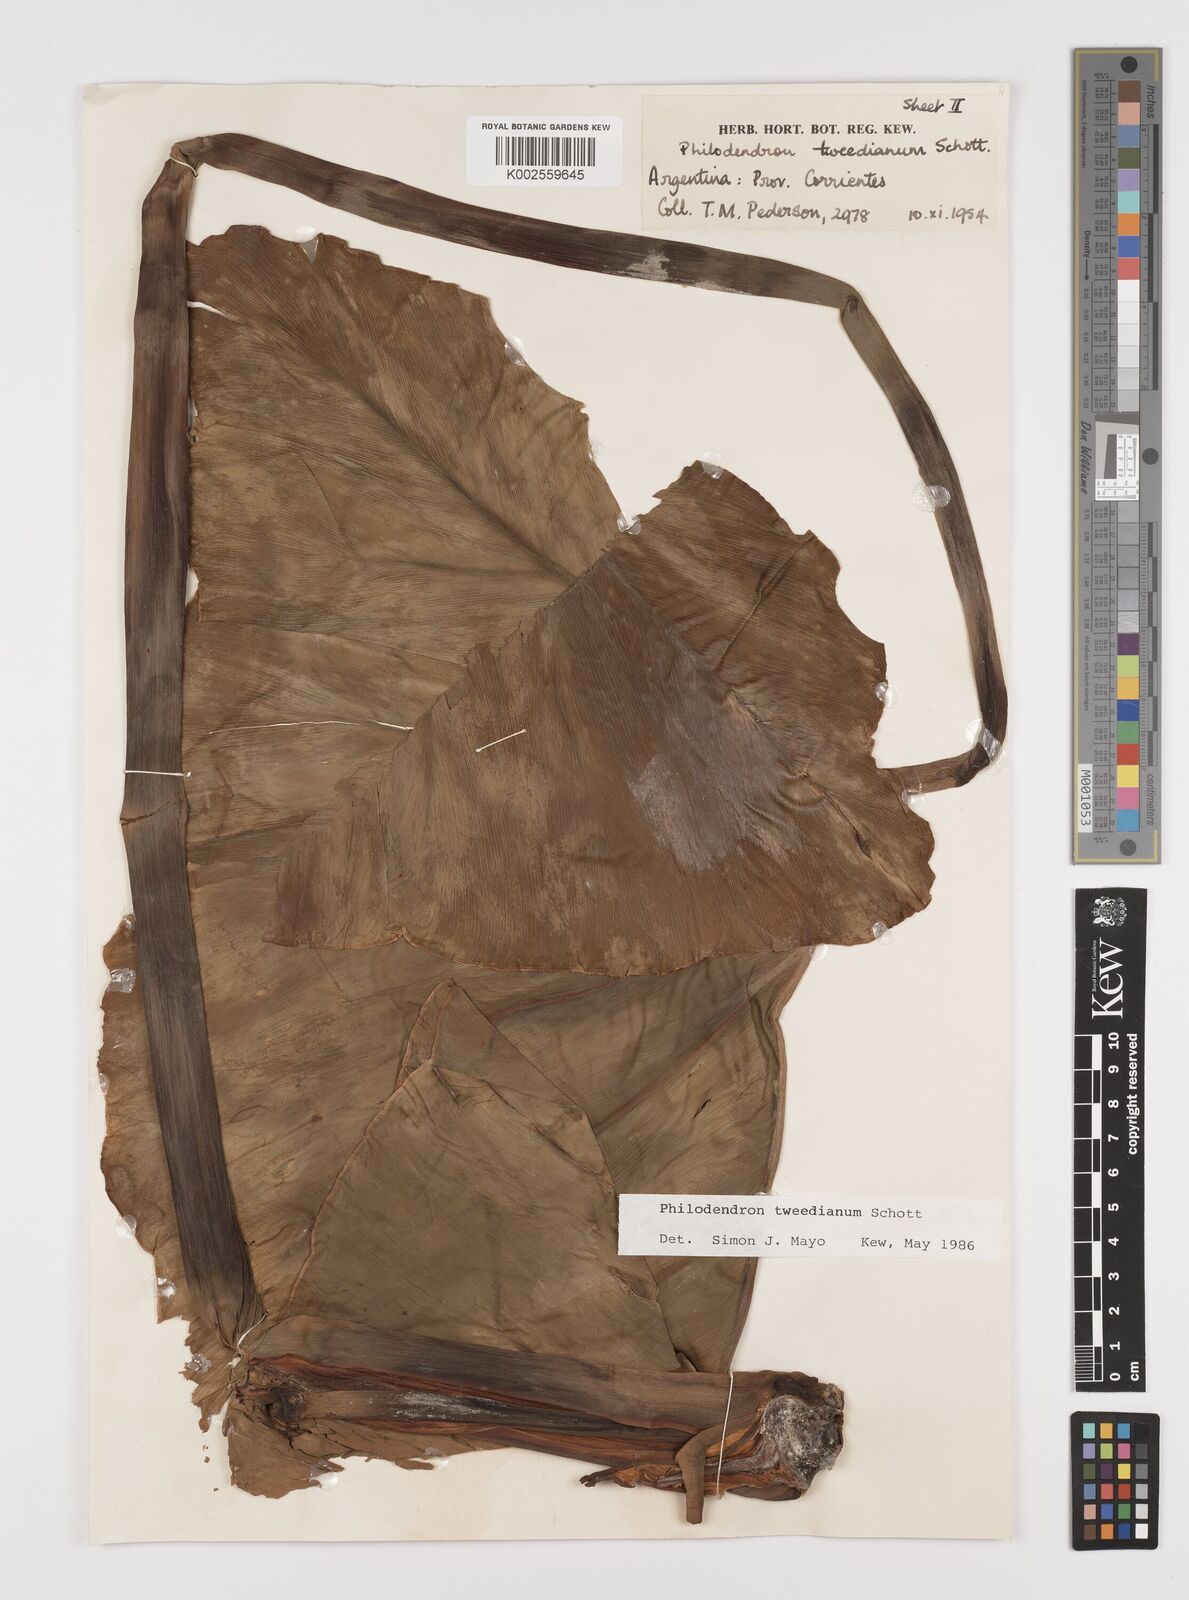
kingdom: Plantae
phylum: Tracheophyta
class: Liliopsida
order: Alismatales
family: Araceae
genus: Thaumatophyllum
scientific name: Thaumatophyllum tweedieanum
